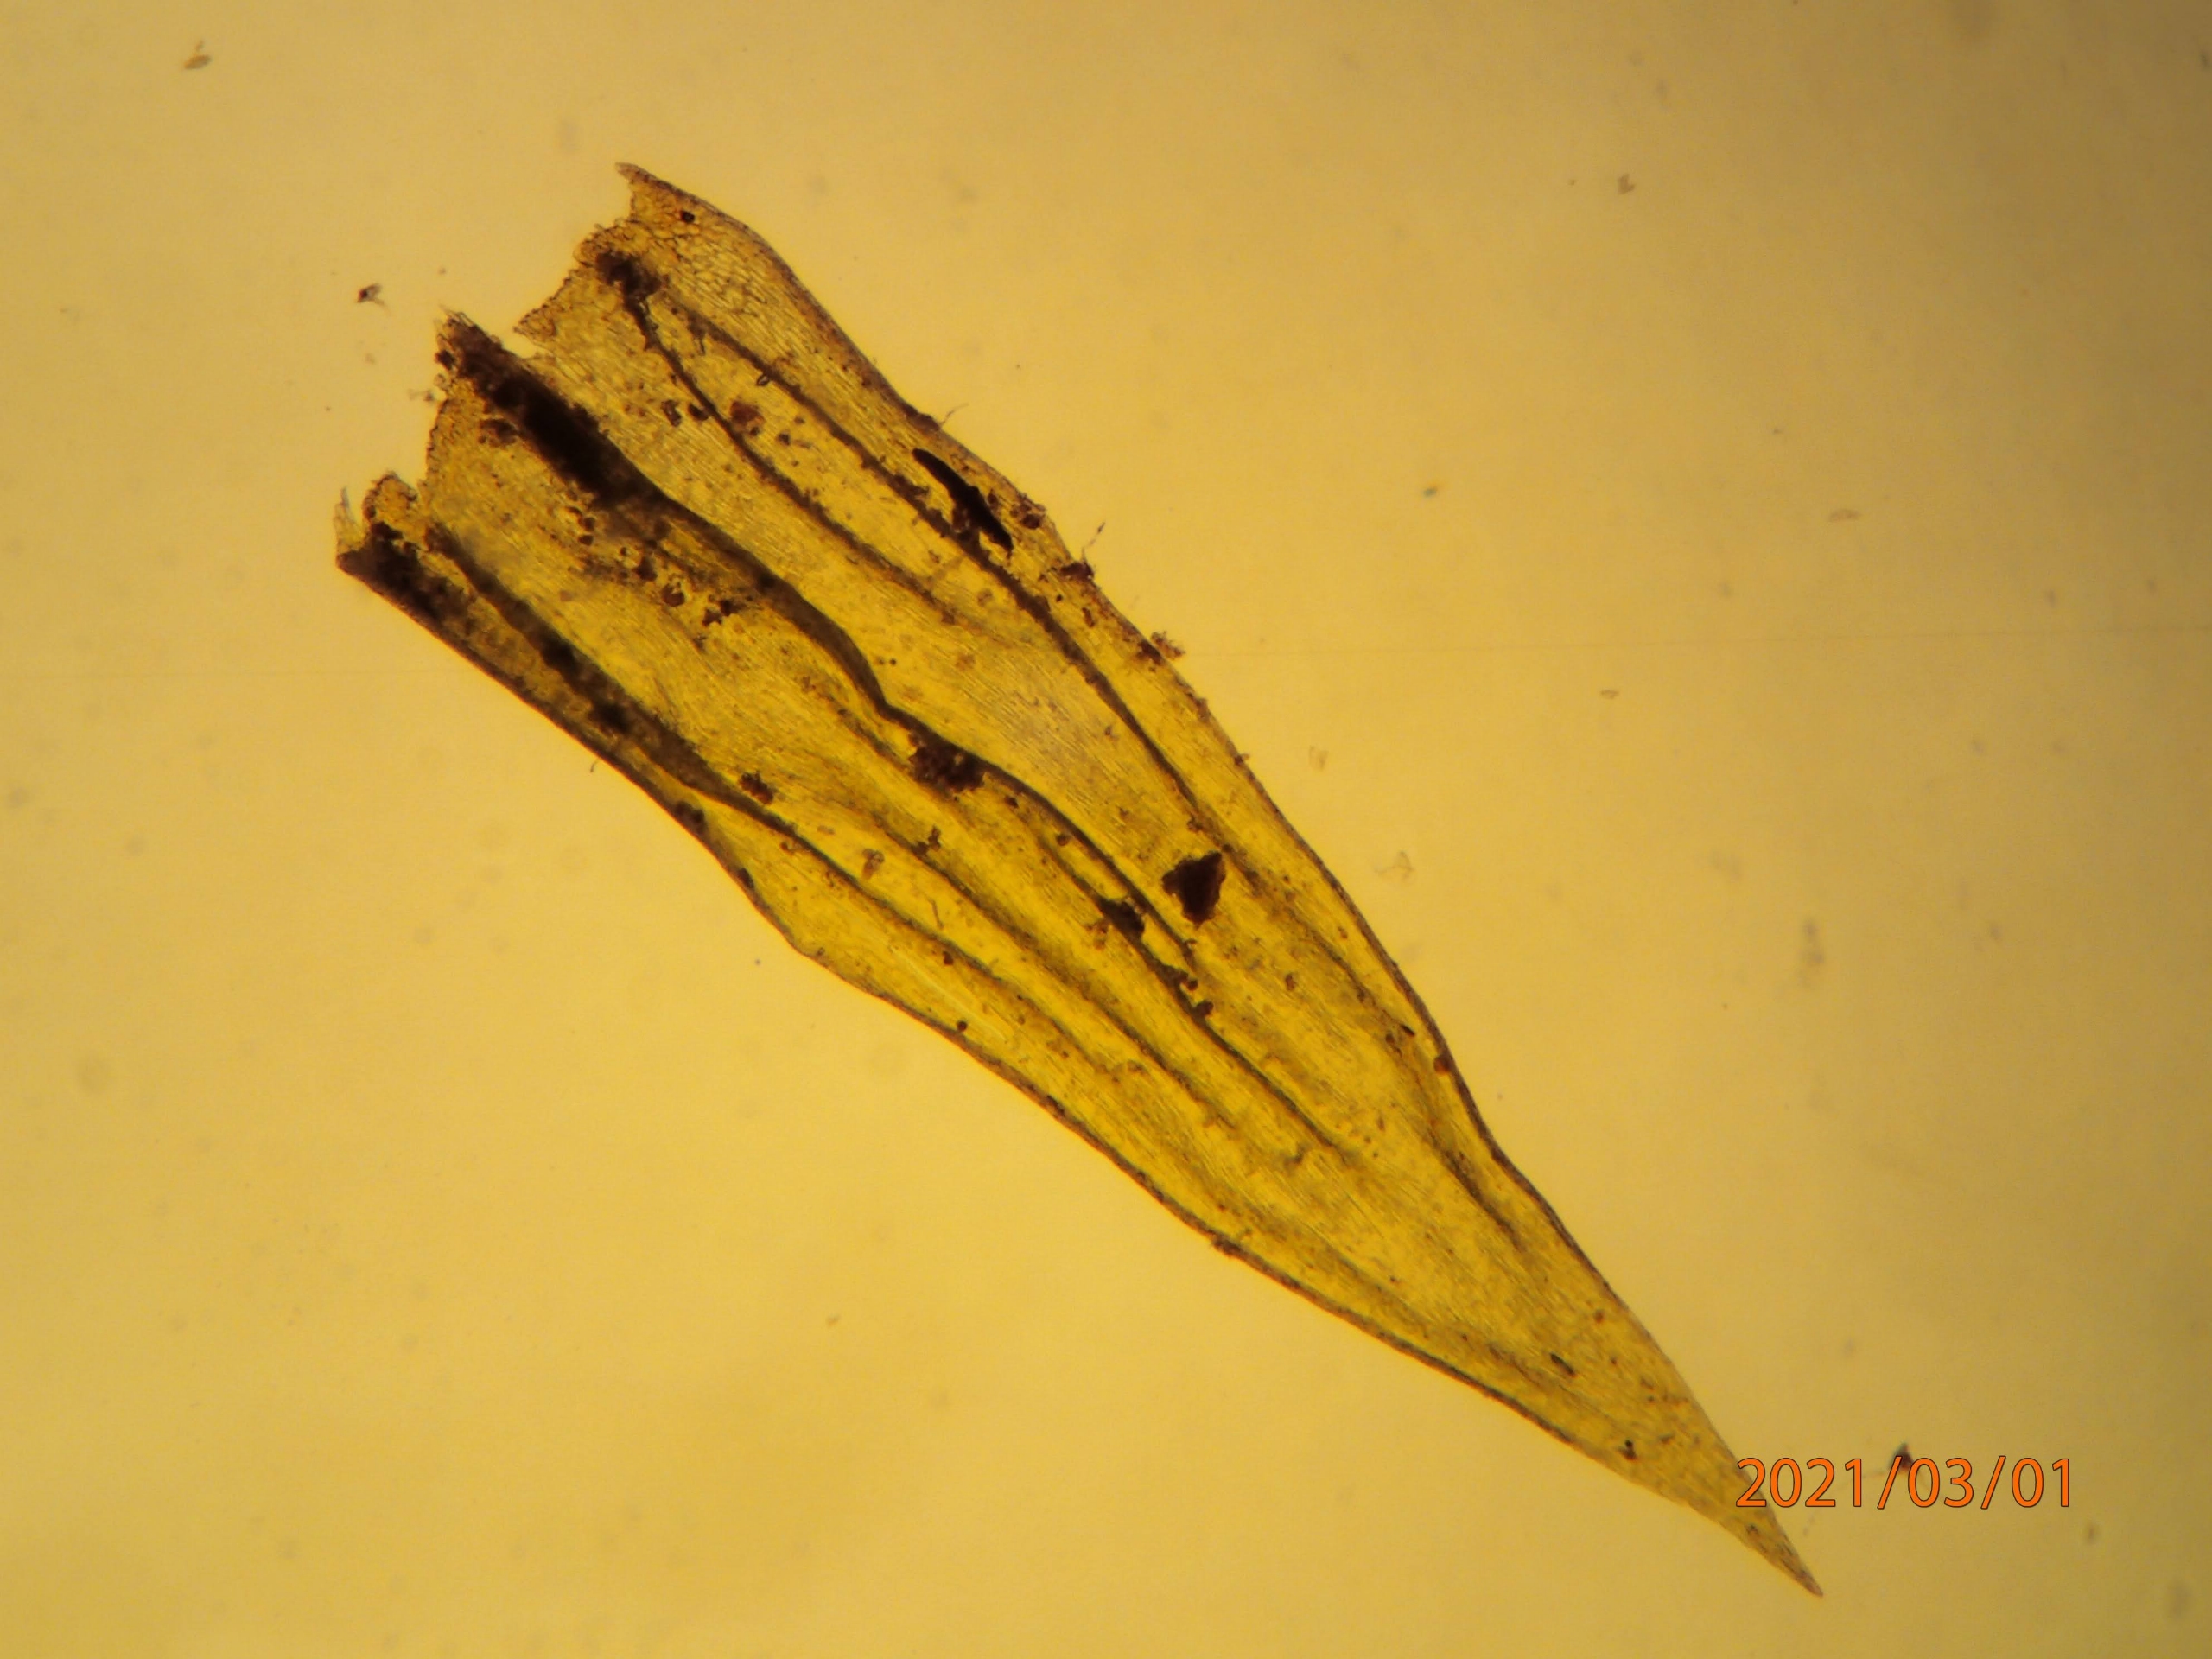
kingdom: Plantae
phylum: Bryophyta
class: Bryopsida
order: Hypnales
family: Brachytheciaceae
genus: Homalothecium
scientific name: Homalothecium lutescens
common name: Gul krumkapsel
